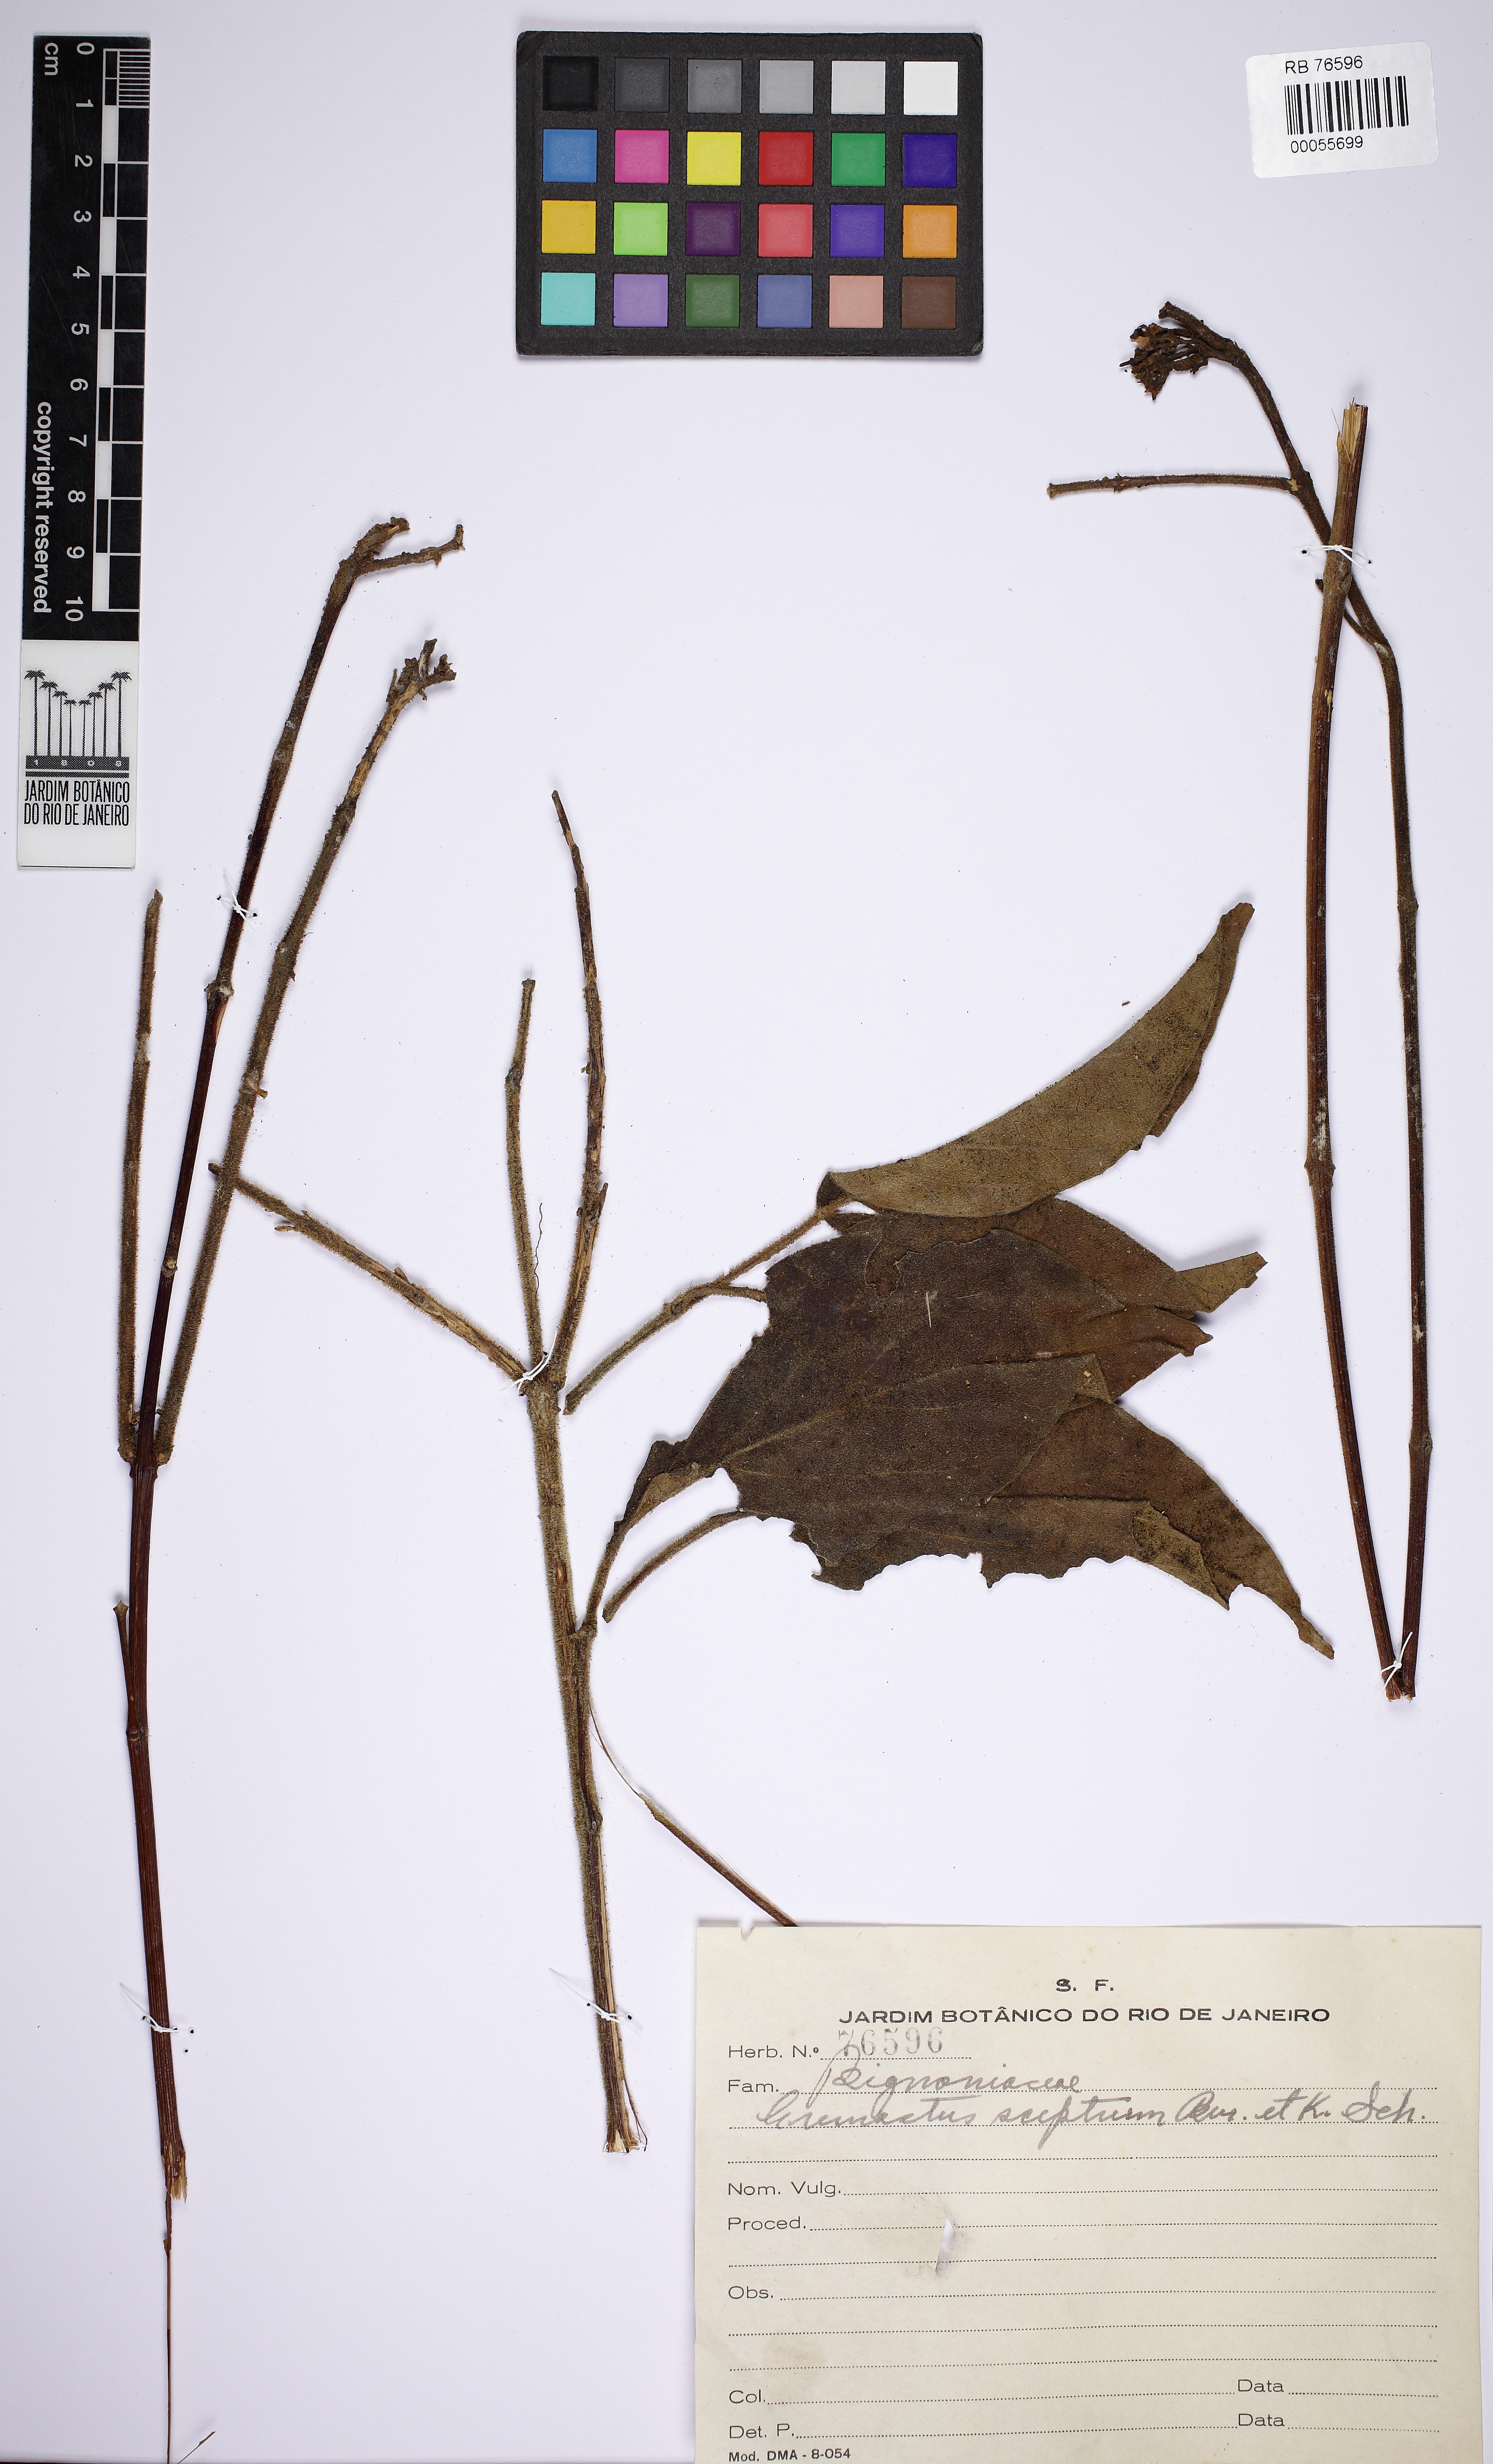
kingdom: Plantae
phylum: Tracheophyta
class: Magnoliopsida
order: Lamiales
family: Bignoniaceae
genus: Cuspidaria
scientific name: Cuspidaria pulchra
